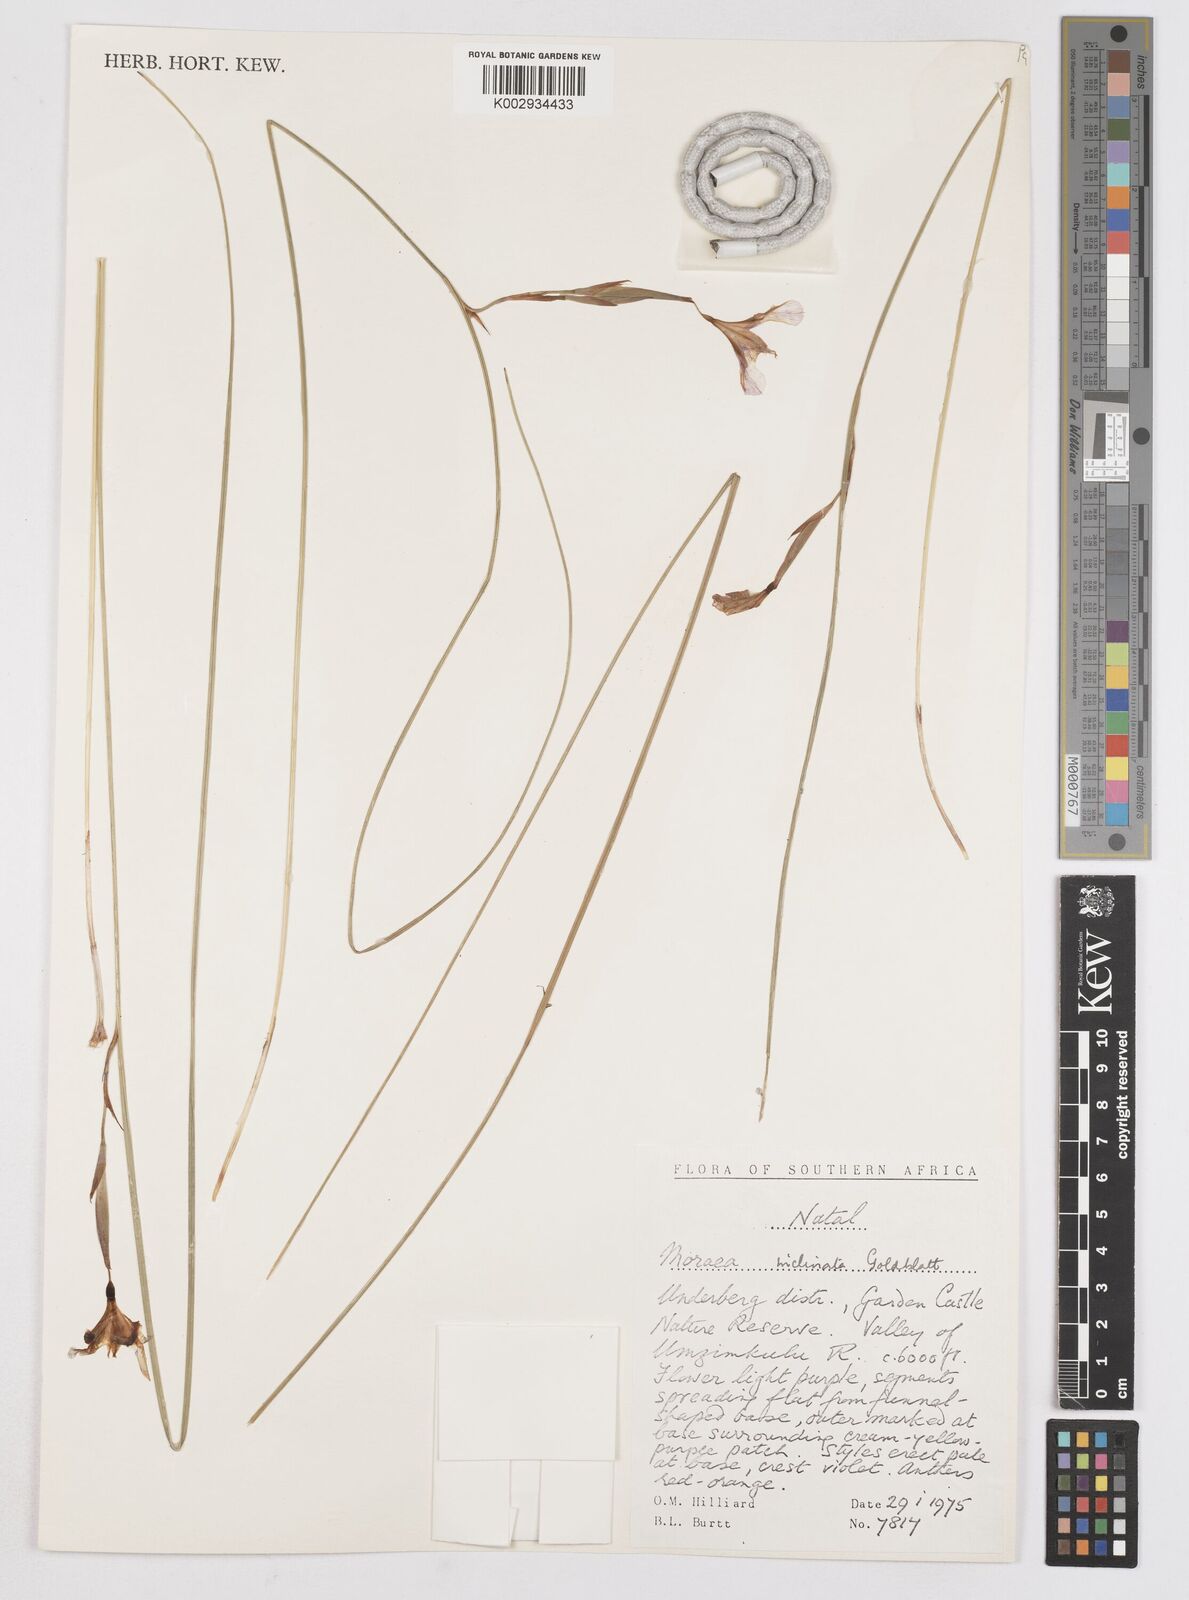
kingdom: Plantae
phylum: Tracheophyta
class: Liliopsida
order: Asparagales
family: Iridaceae
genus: Moraea
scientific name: Moraea inclinata
